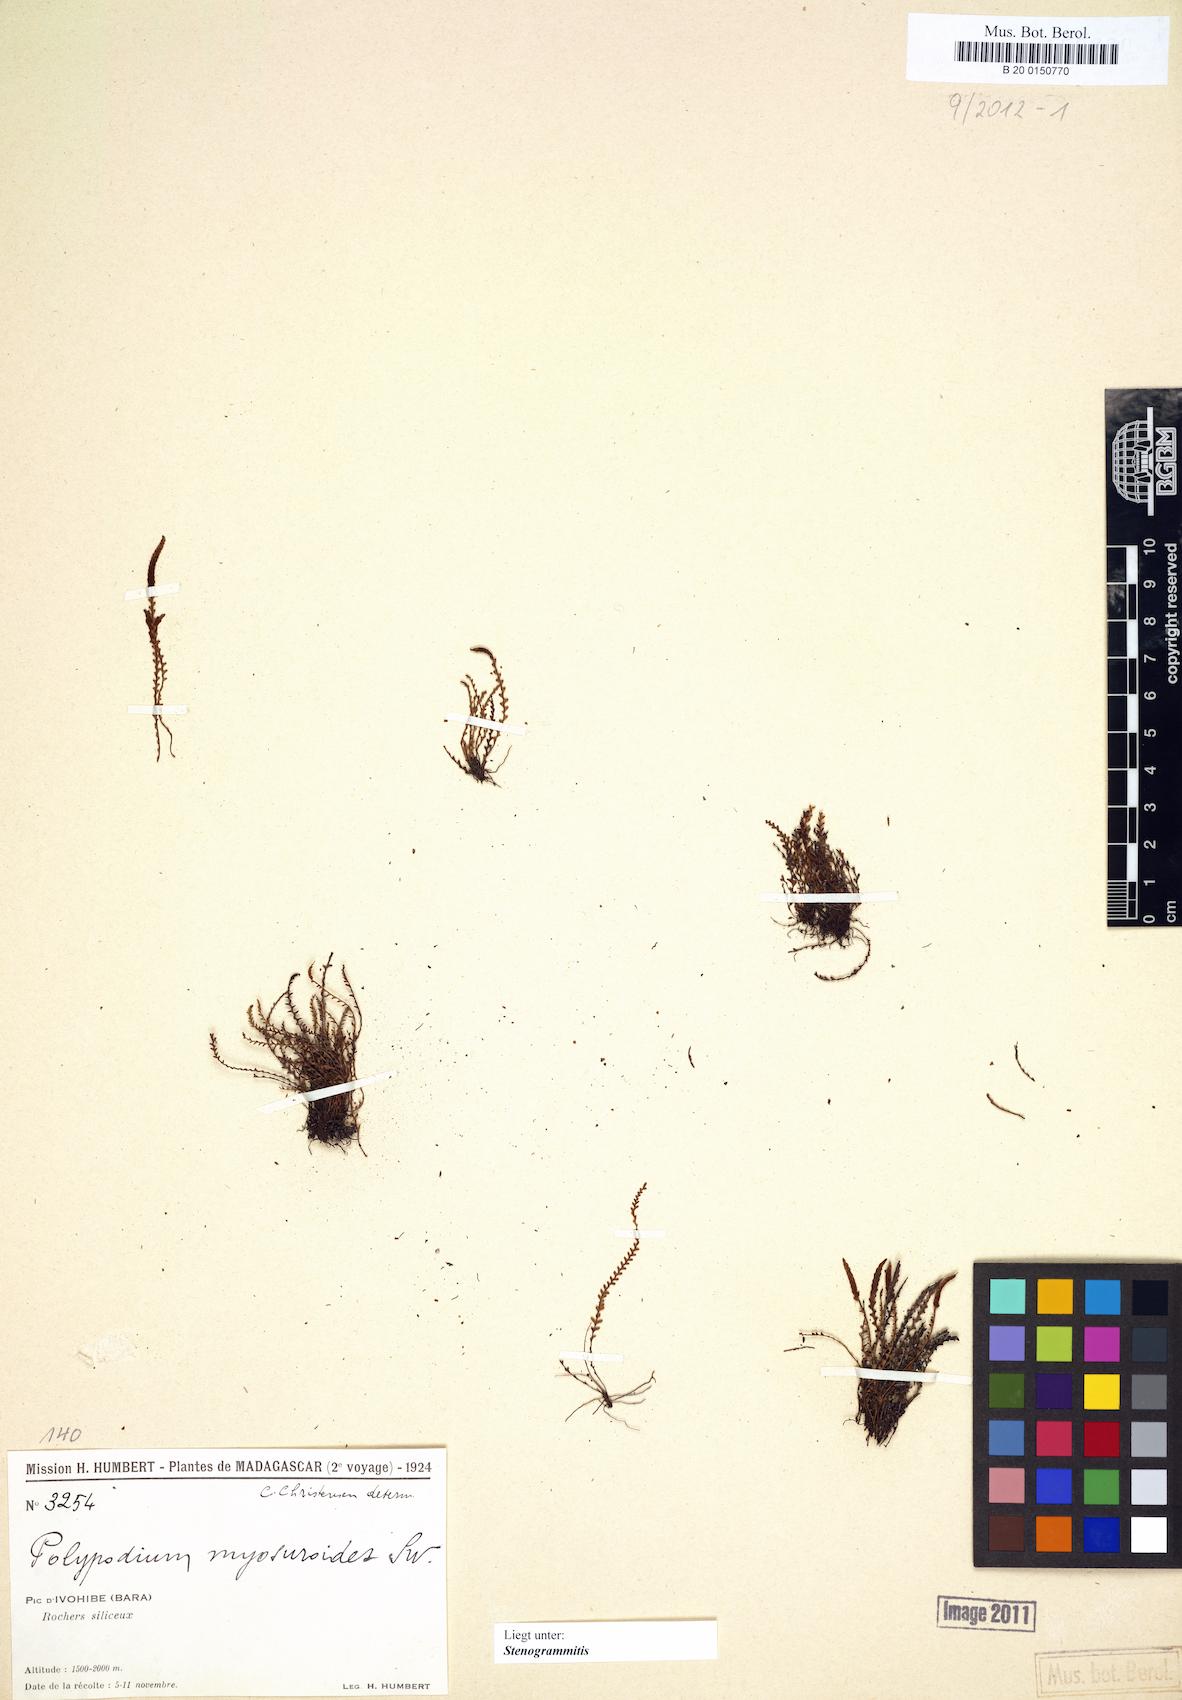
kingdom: Plantae
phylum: Tracheophyta
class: Polypodiopsida
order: Polypodiales
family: Polypodiaceae
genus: Stenogrammitis
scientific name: Stenogrammitis
